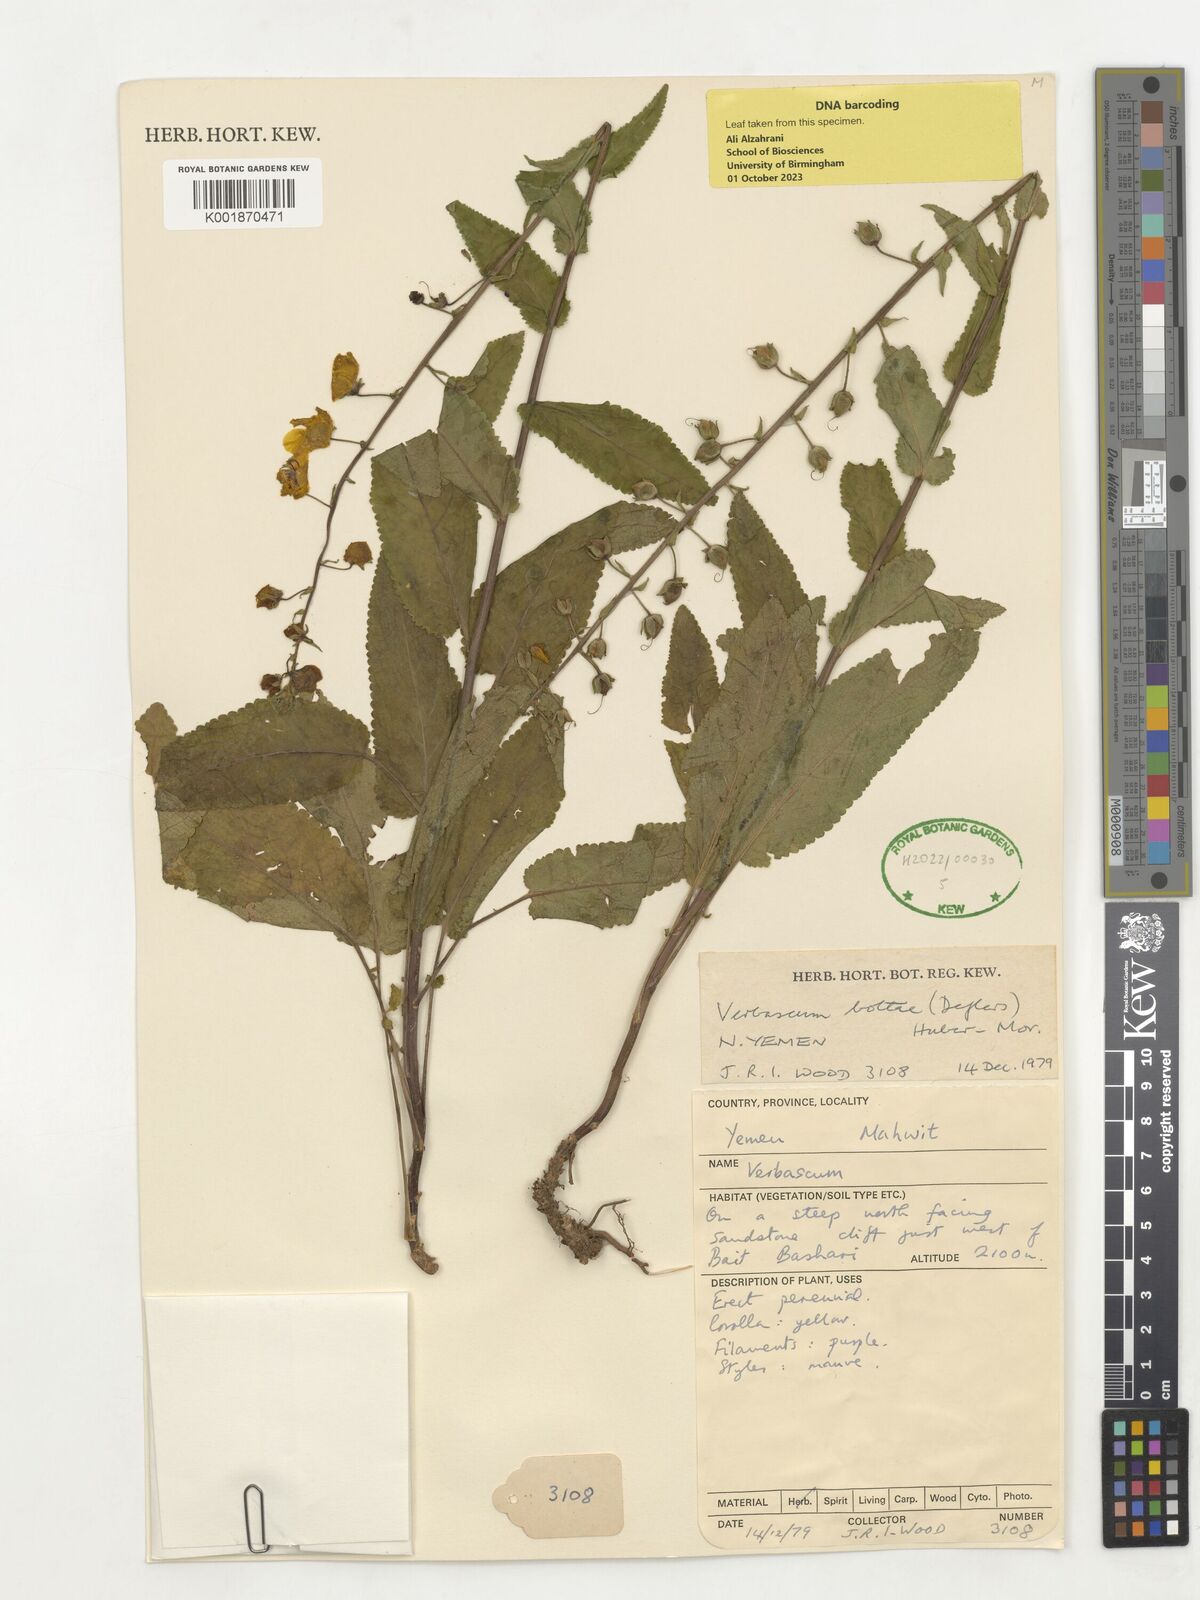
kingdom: Plantae
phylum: Tracheophyta
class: Magnoliopsida
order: Lamiales
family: Scrophulariaceae
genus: Rhabdotosperma
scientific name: Rhabdotosperma bottae
